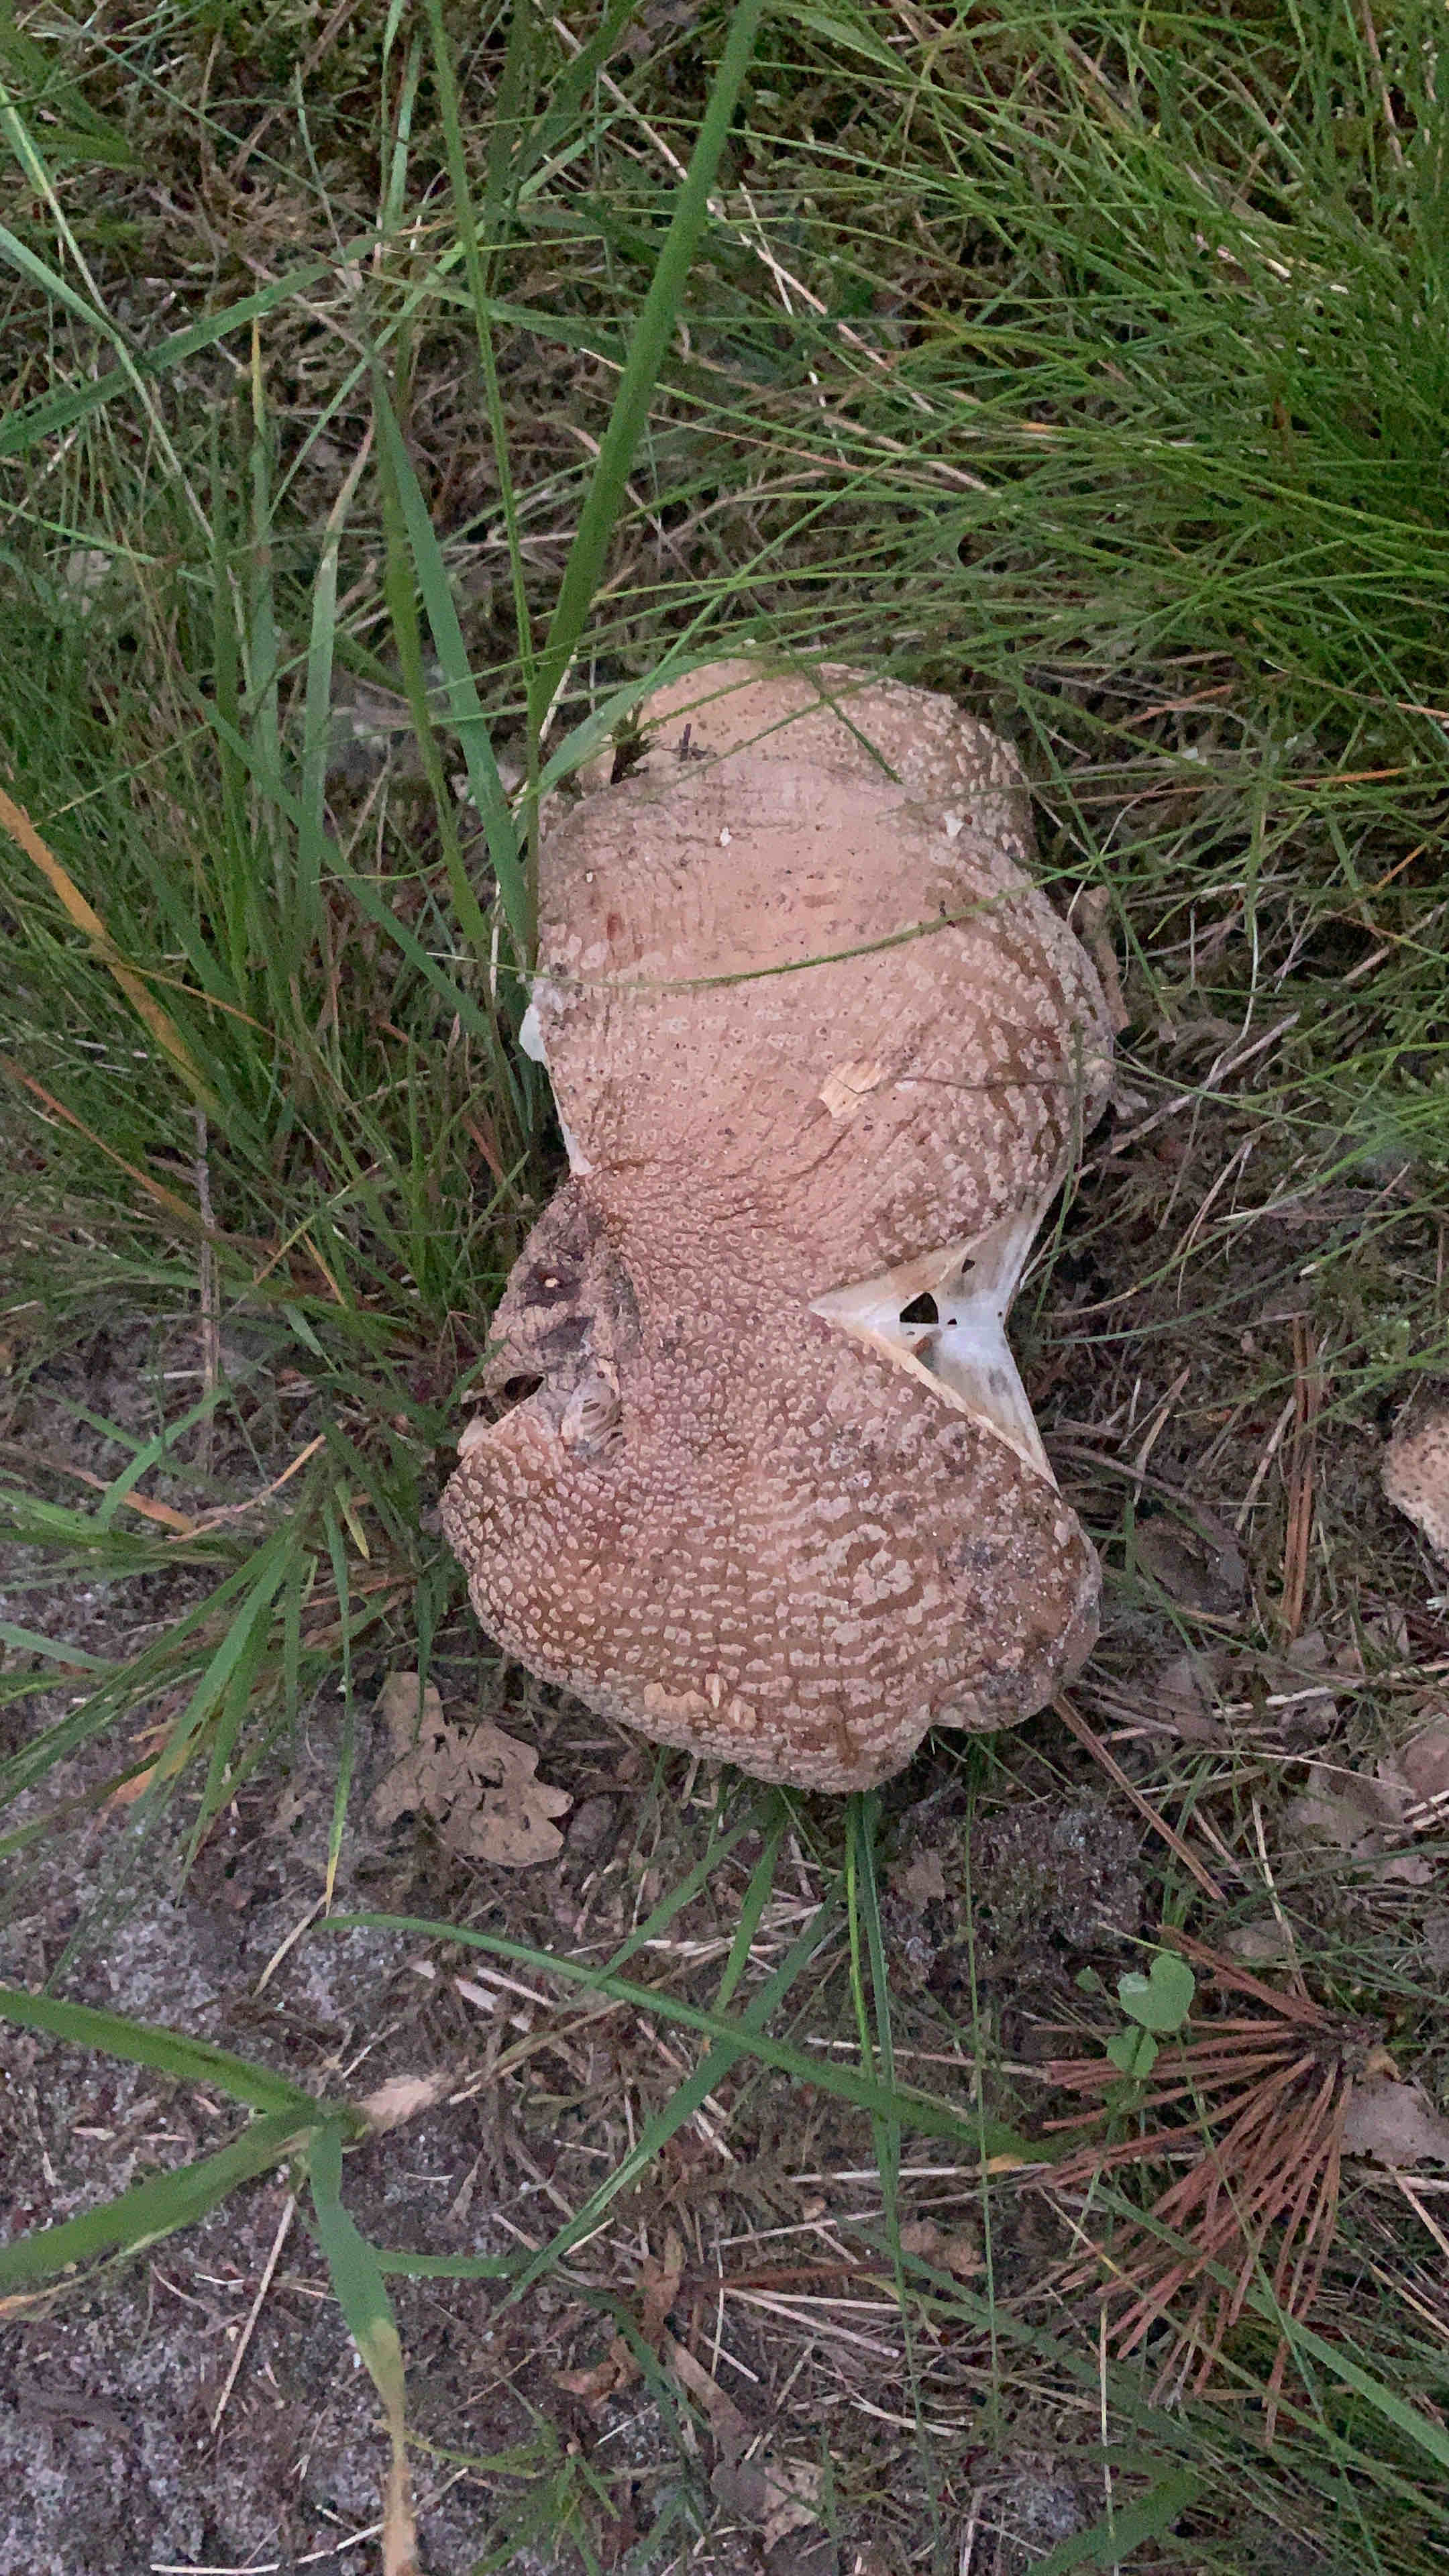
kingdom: Fungi
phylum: Basidiomycota
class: Agaricomycetes
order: Agaricales
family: Amanitaceae
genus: Amanita
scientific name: Amanita rubescens
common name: rødmende fluesvamp
